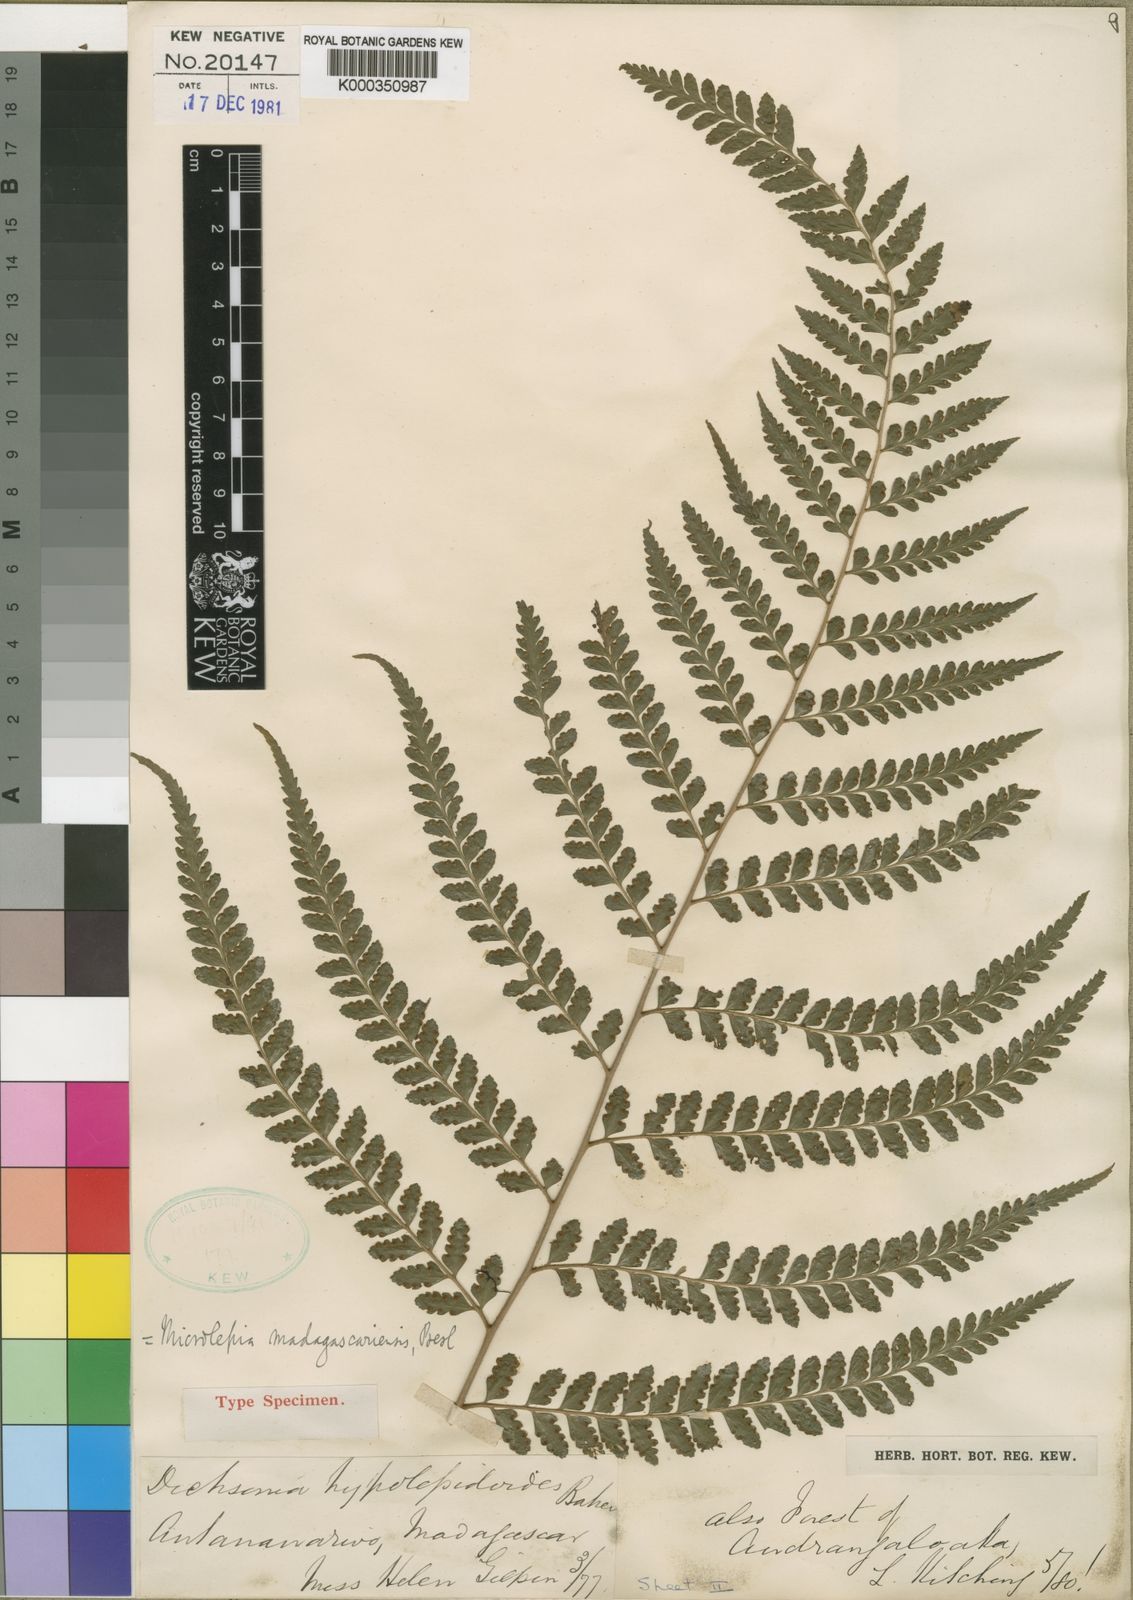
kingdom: Plantae
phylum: Tracheophyta
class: Polypodiopsida
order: Polypodiales
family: Dennstaedtiaceae
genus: Dennstaedtia
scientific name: Dennstaedtia madagascariensis
